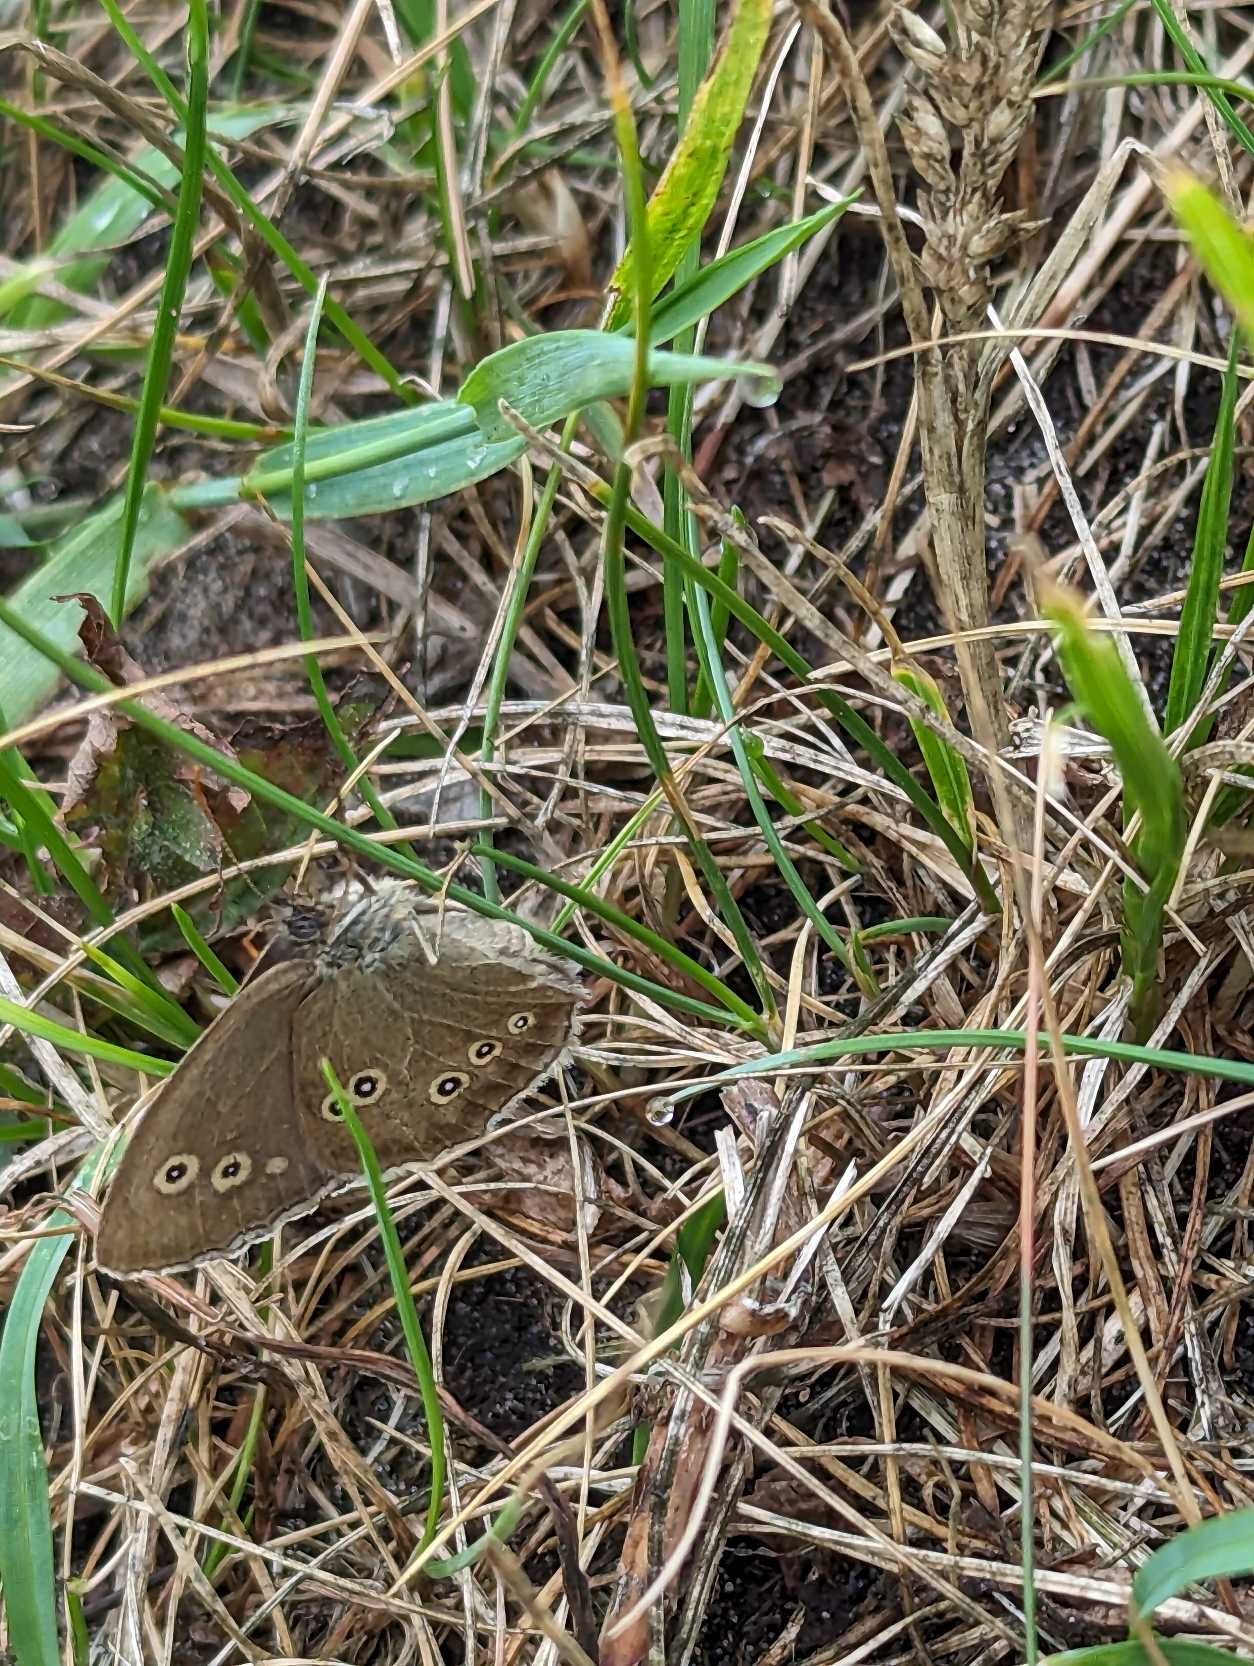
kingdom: Animalia
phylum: Arthropoda
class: Insecta
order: Lepidoptera
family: Nymphalidae
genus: Aphantopus
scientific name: Aphantopus hyperantus
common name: Engrandøje
